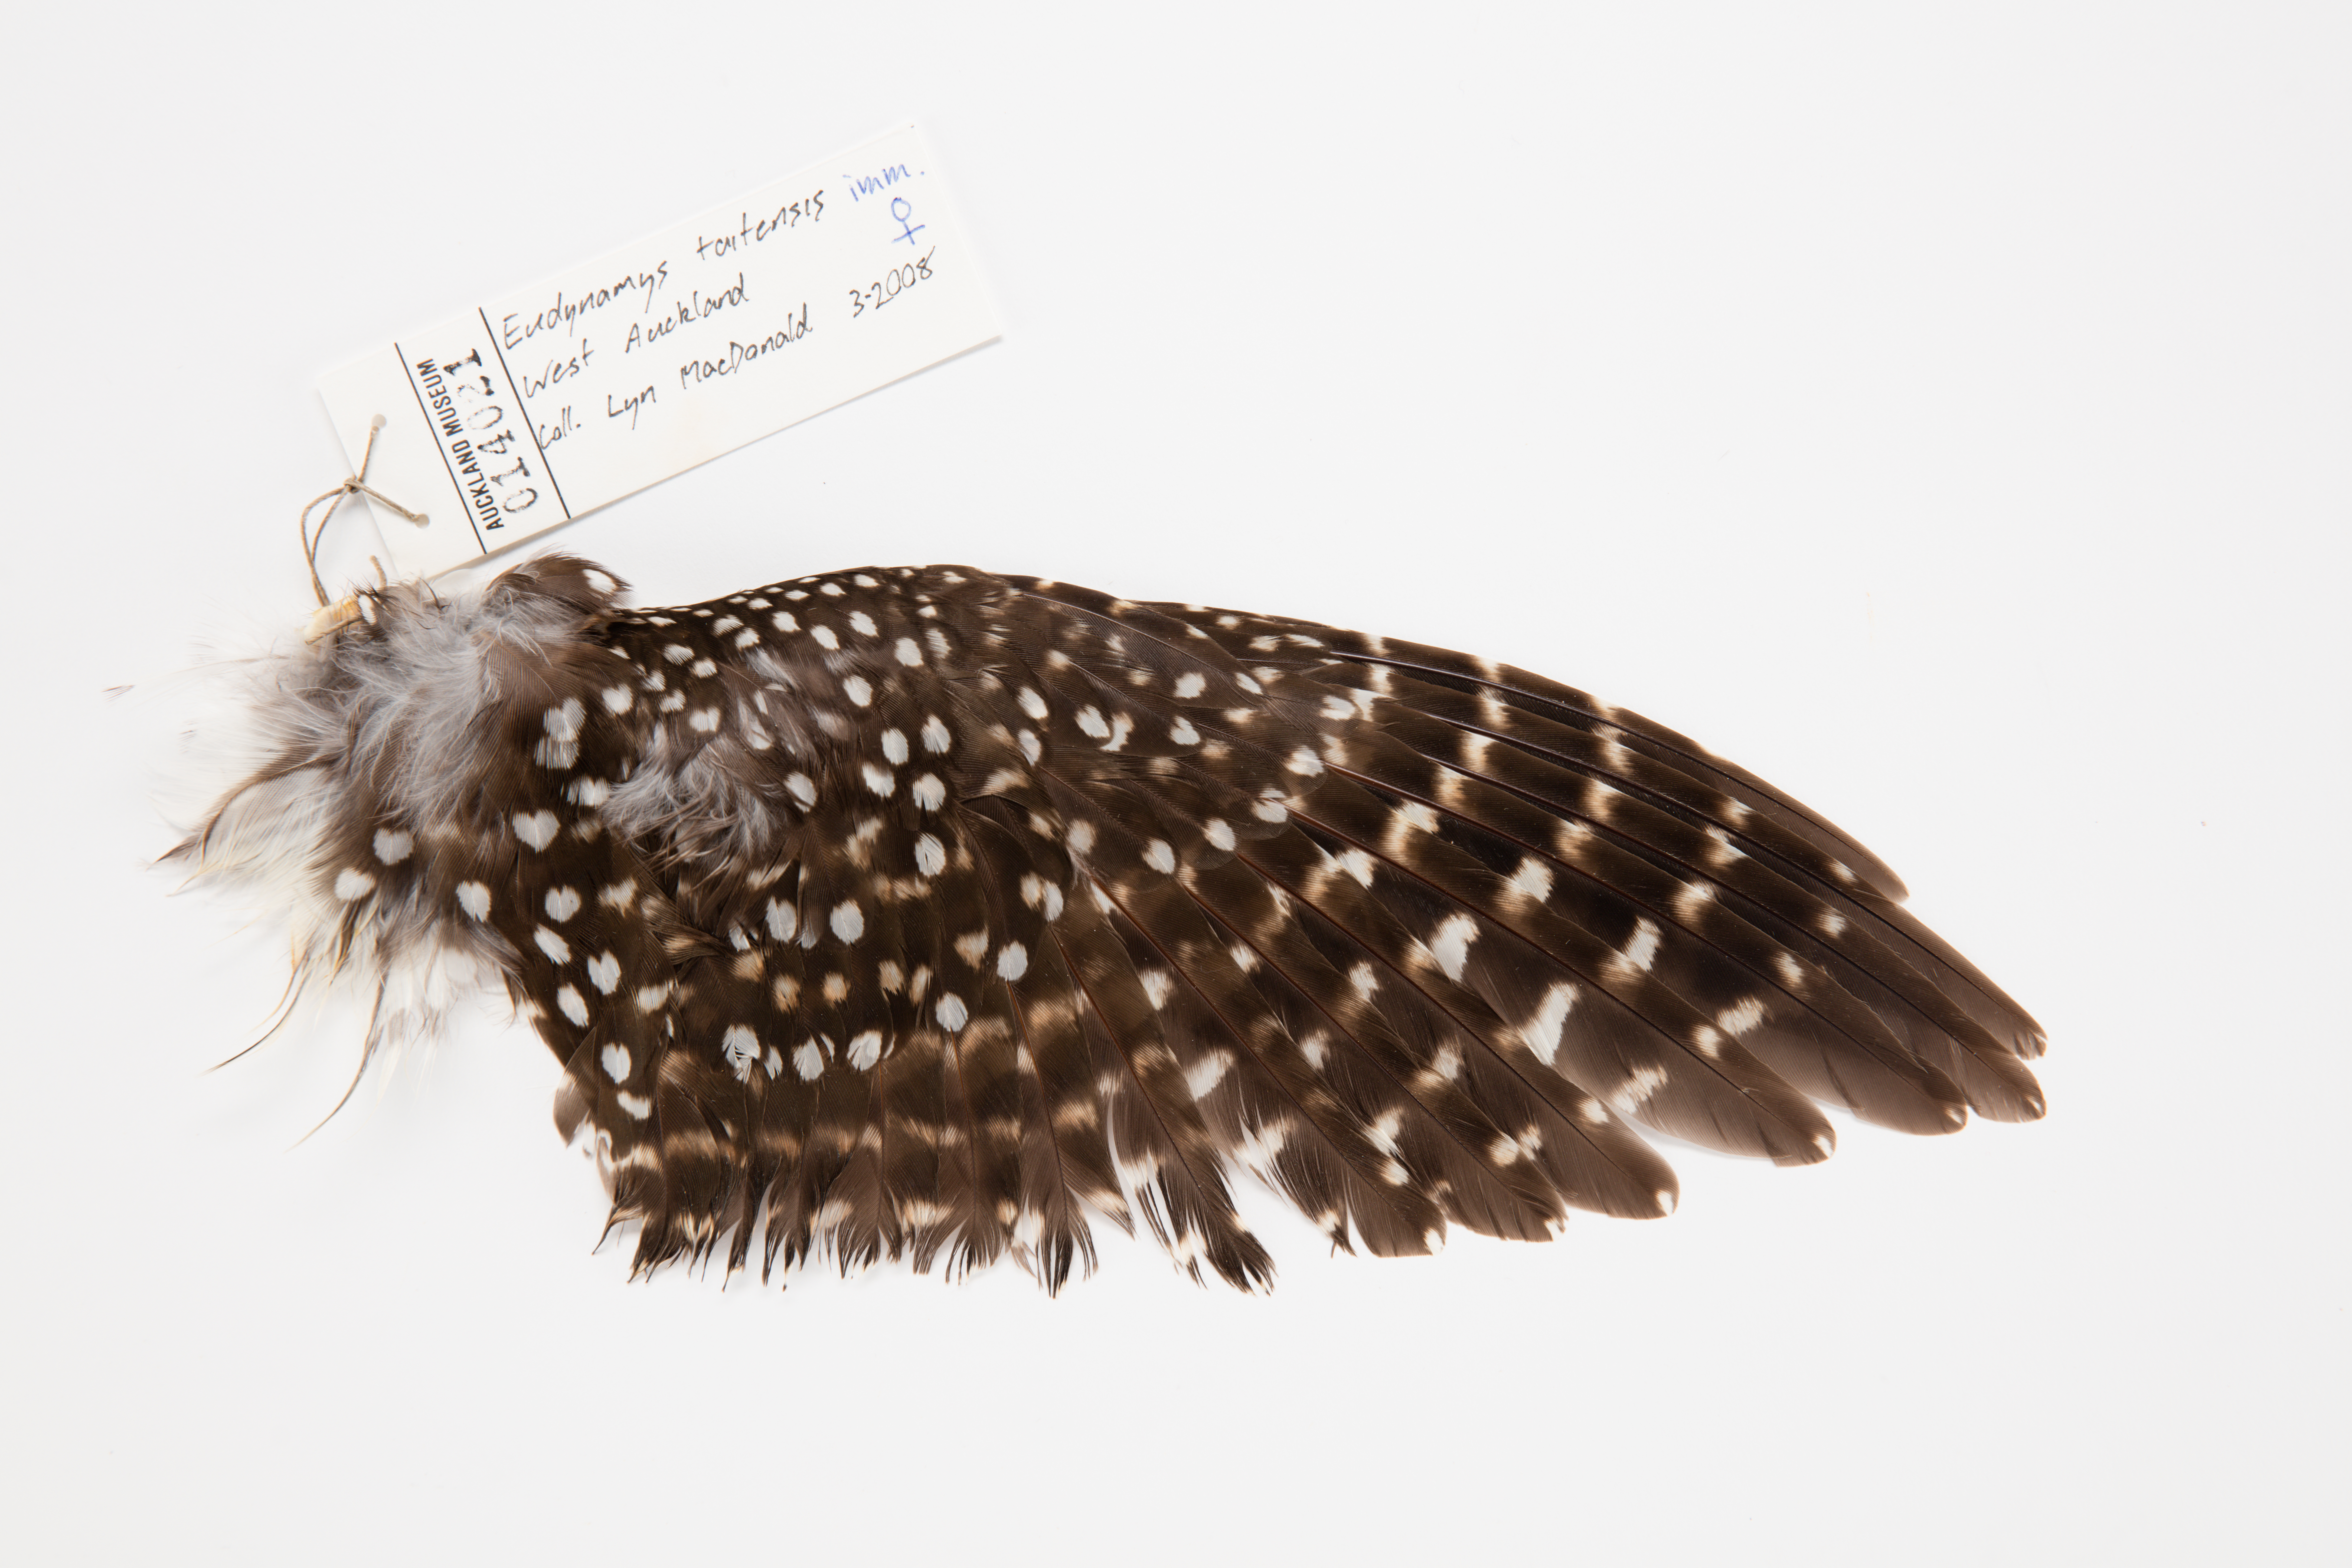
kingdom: Animalia
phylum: Chordata
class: Aves
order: Cuculiformes
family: Cuculidae
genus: Urodynamis
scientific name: Urodynamis taitensis
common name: Long-tailed koel
